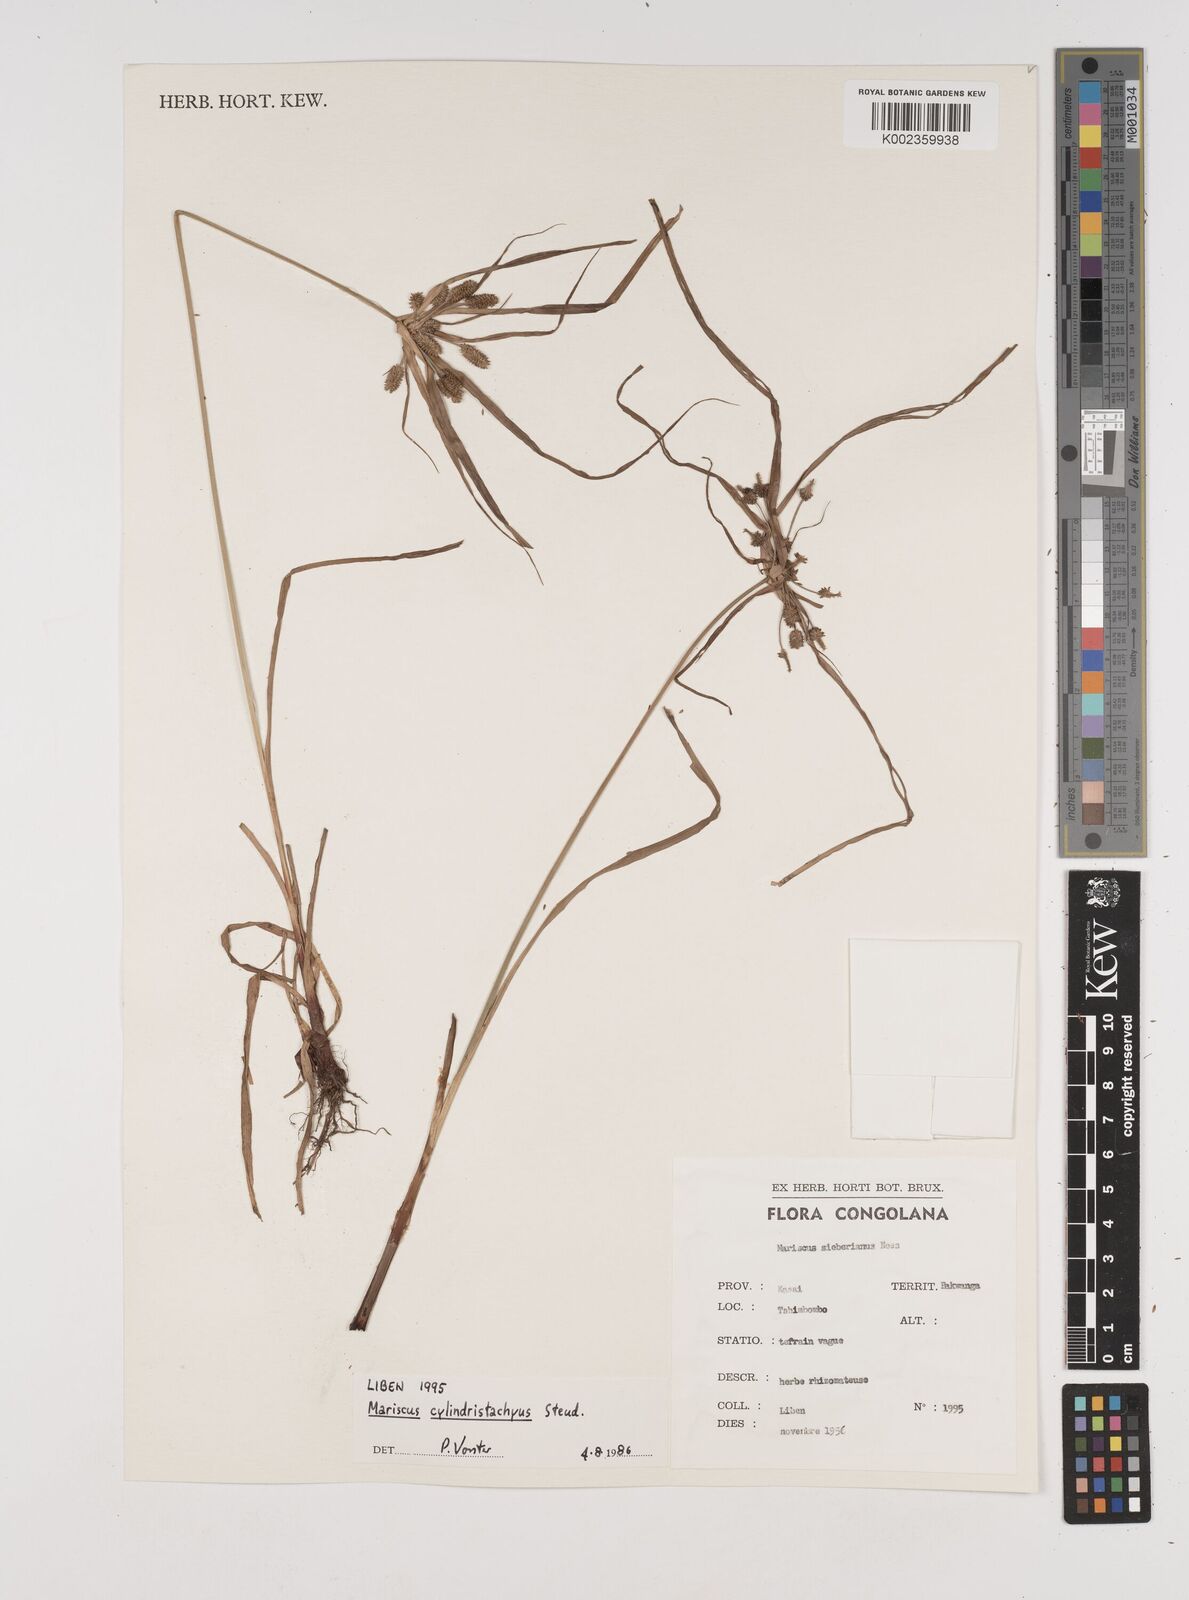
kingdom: Plantae
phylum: Tracheophyta
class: Liliopsida
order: Poales
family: Cyperaceae
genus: Cyperus
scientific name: Cyperus cyperoides
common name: Pacific island flat sedge
